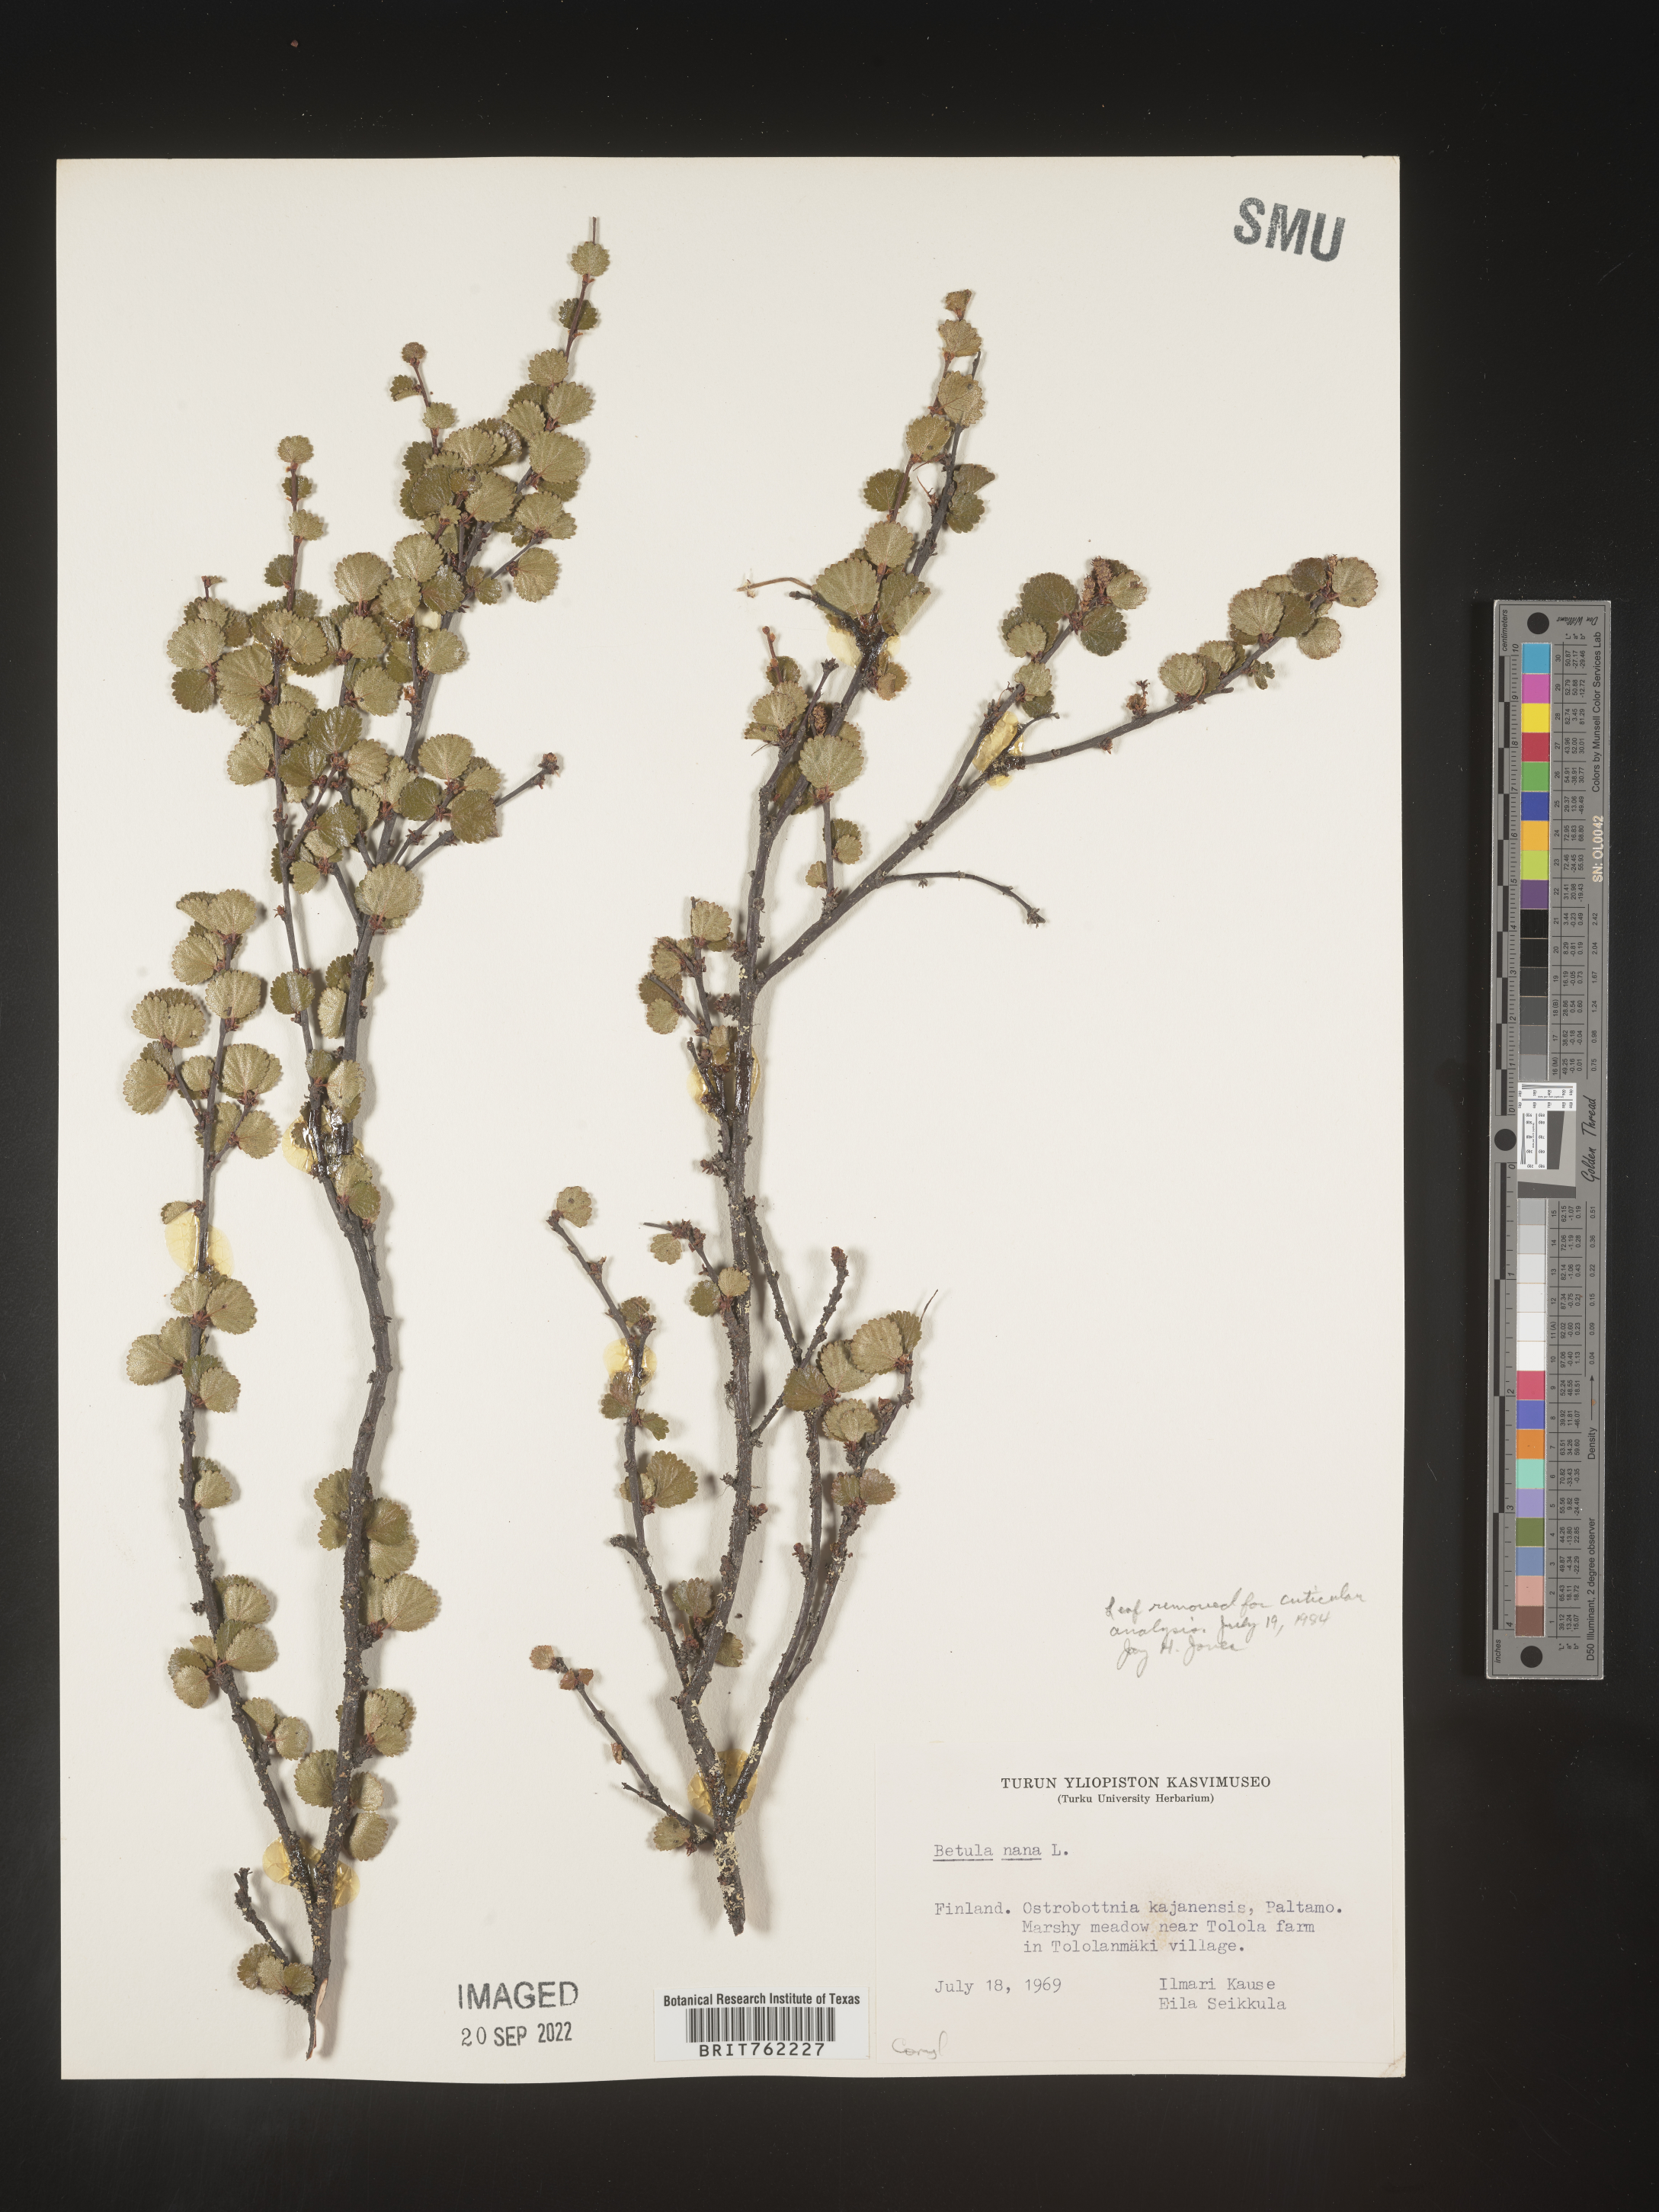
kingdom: Plantae
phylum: Tracheophyta
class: Magnoliopsida
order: Fagales
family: Betulaceae
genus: Betula
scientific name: Betula
